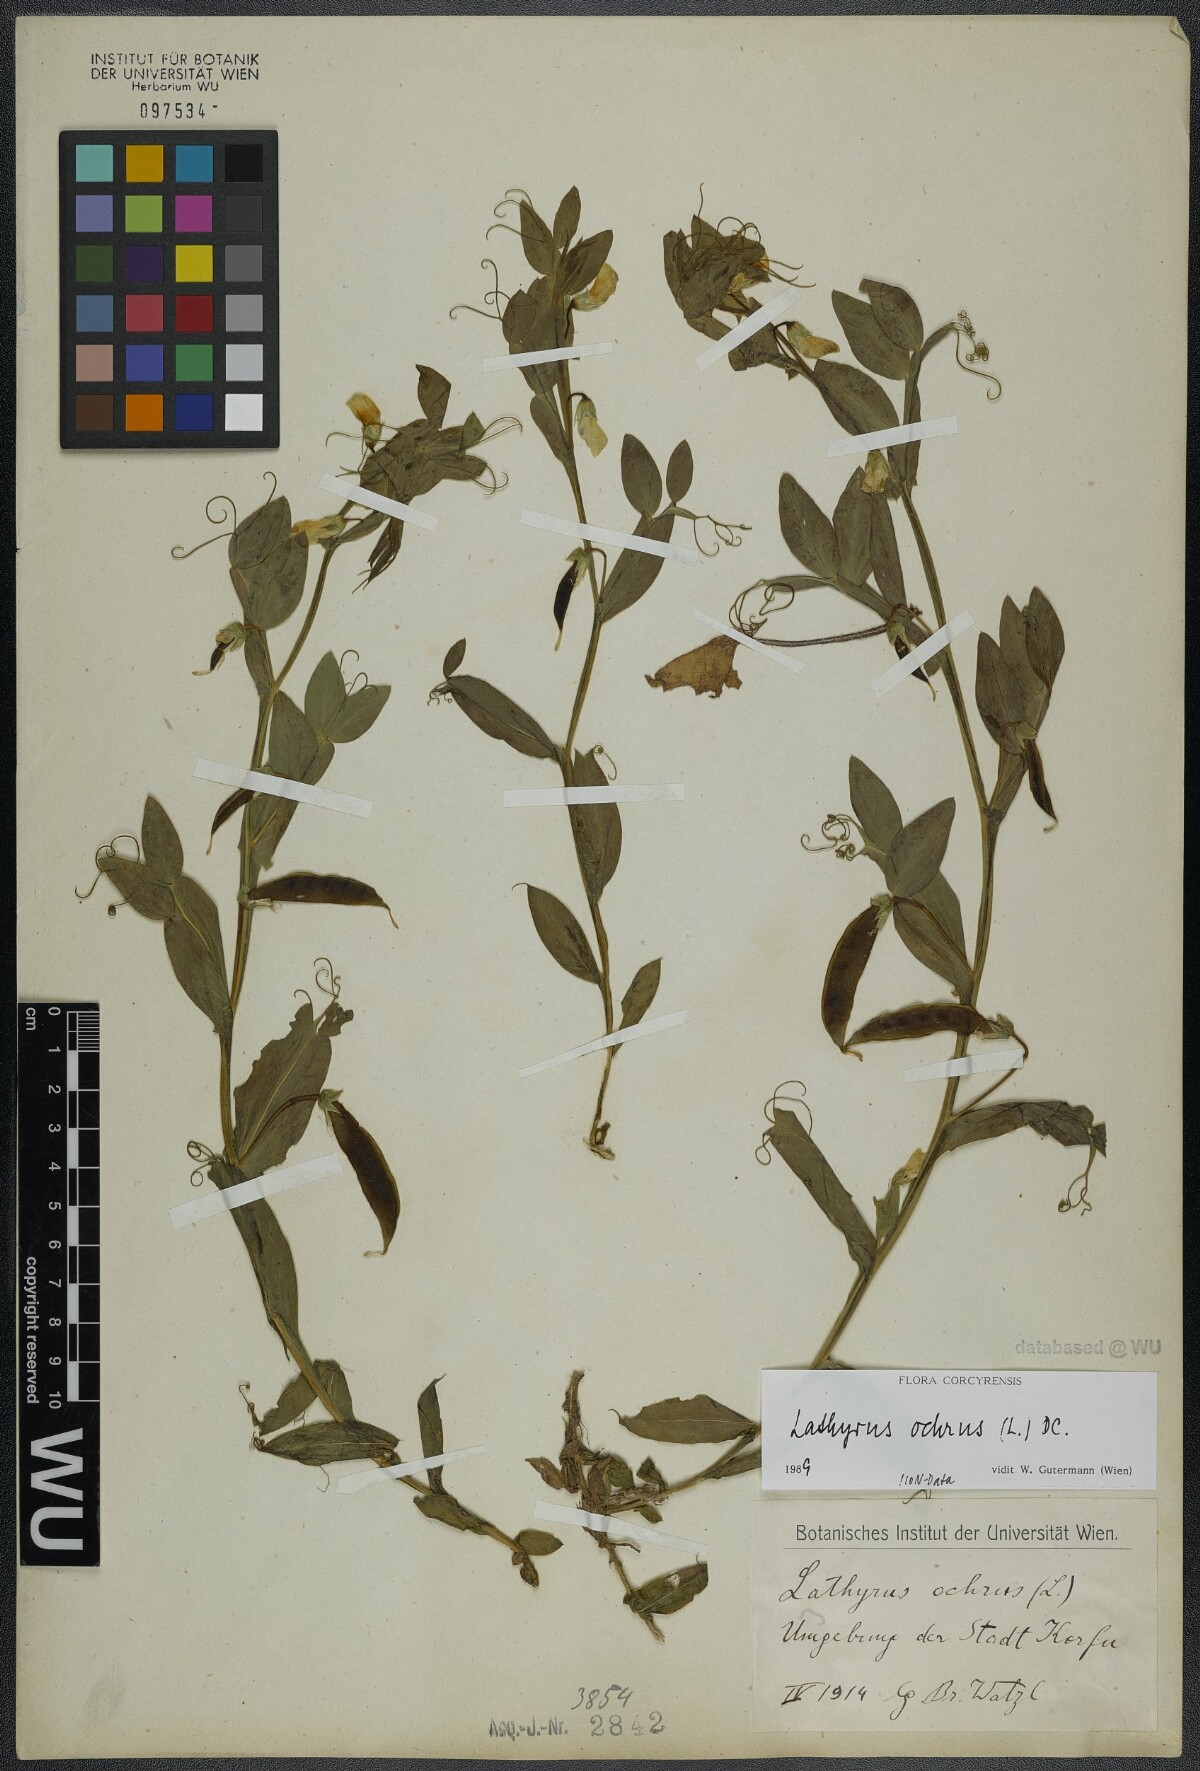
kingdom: Plantae
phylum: Tracheophyta
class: Magnoliopsida
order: Fabales
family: Fabaceae
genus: Lathyrus
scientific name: Lathyrus ochrus
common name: Winged vetchling
